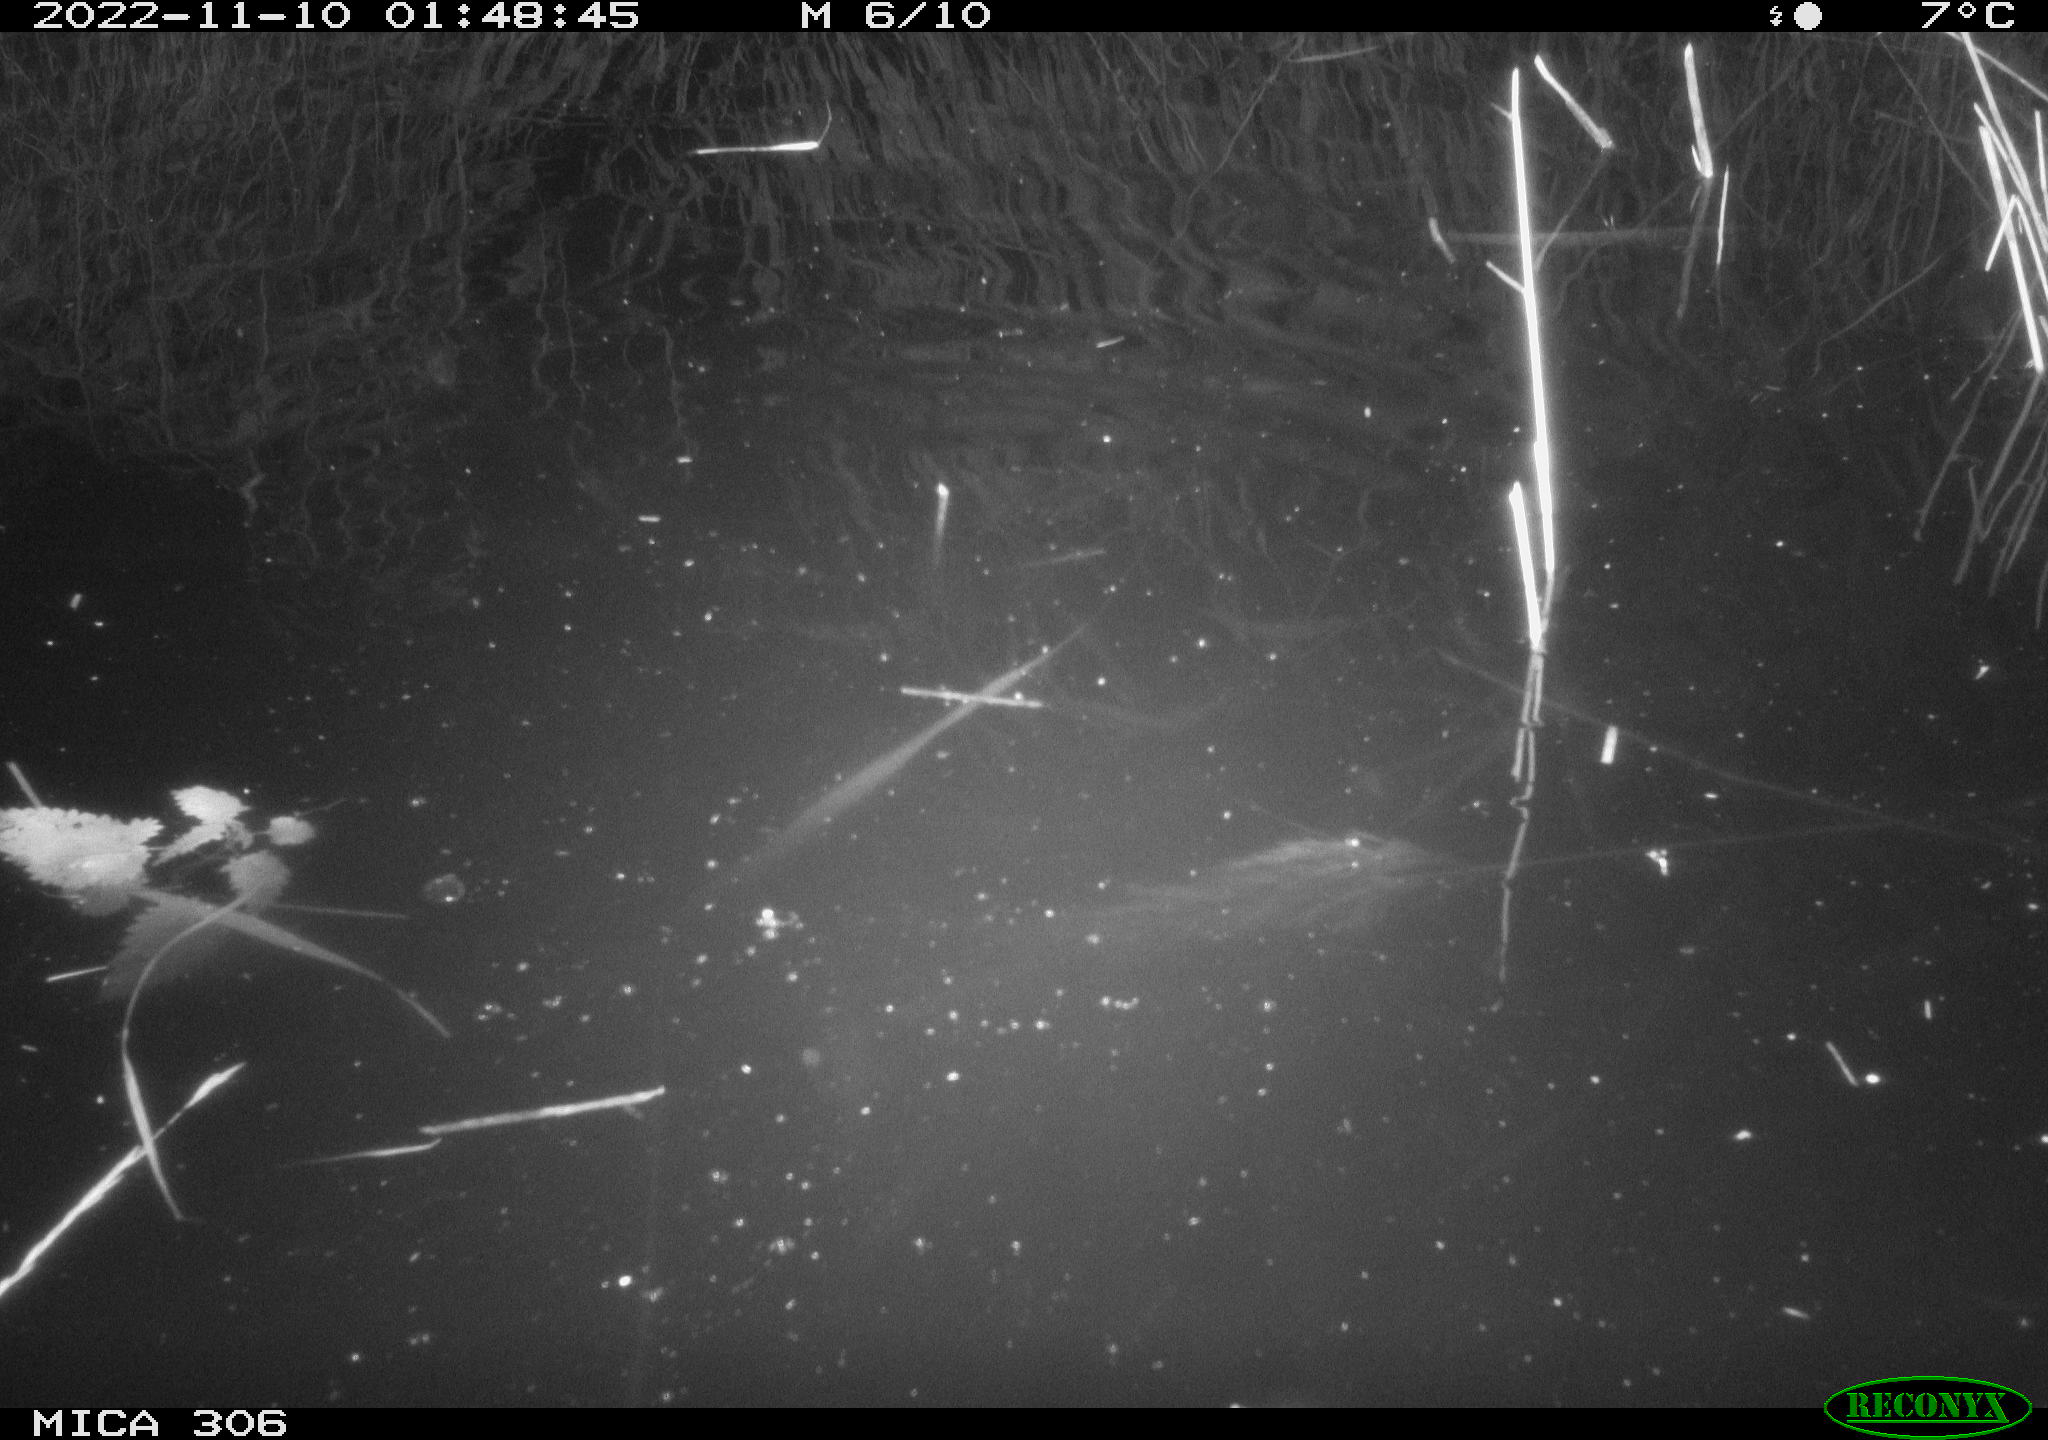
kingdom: Animalia
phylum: Chordata
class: Mammalia
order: Rodentia
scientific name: Rodentia
